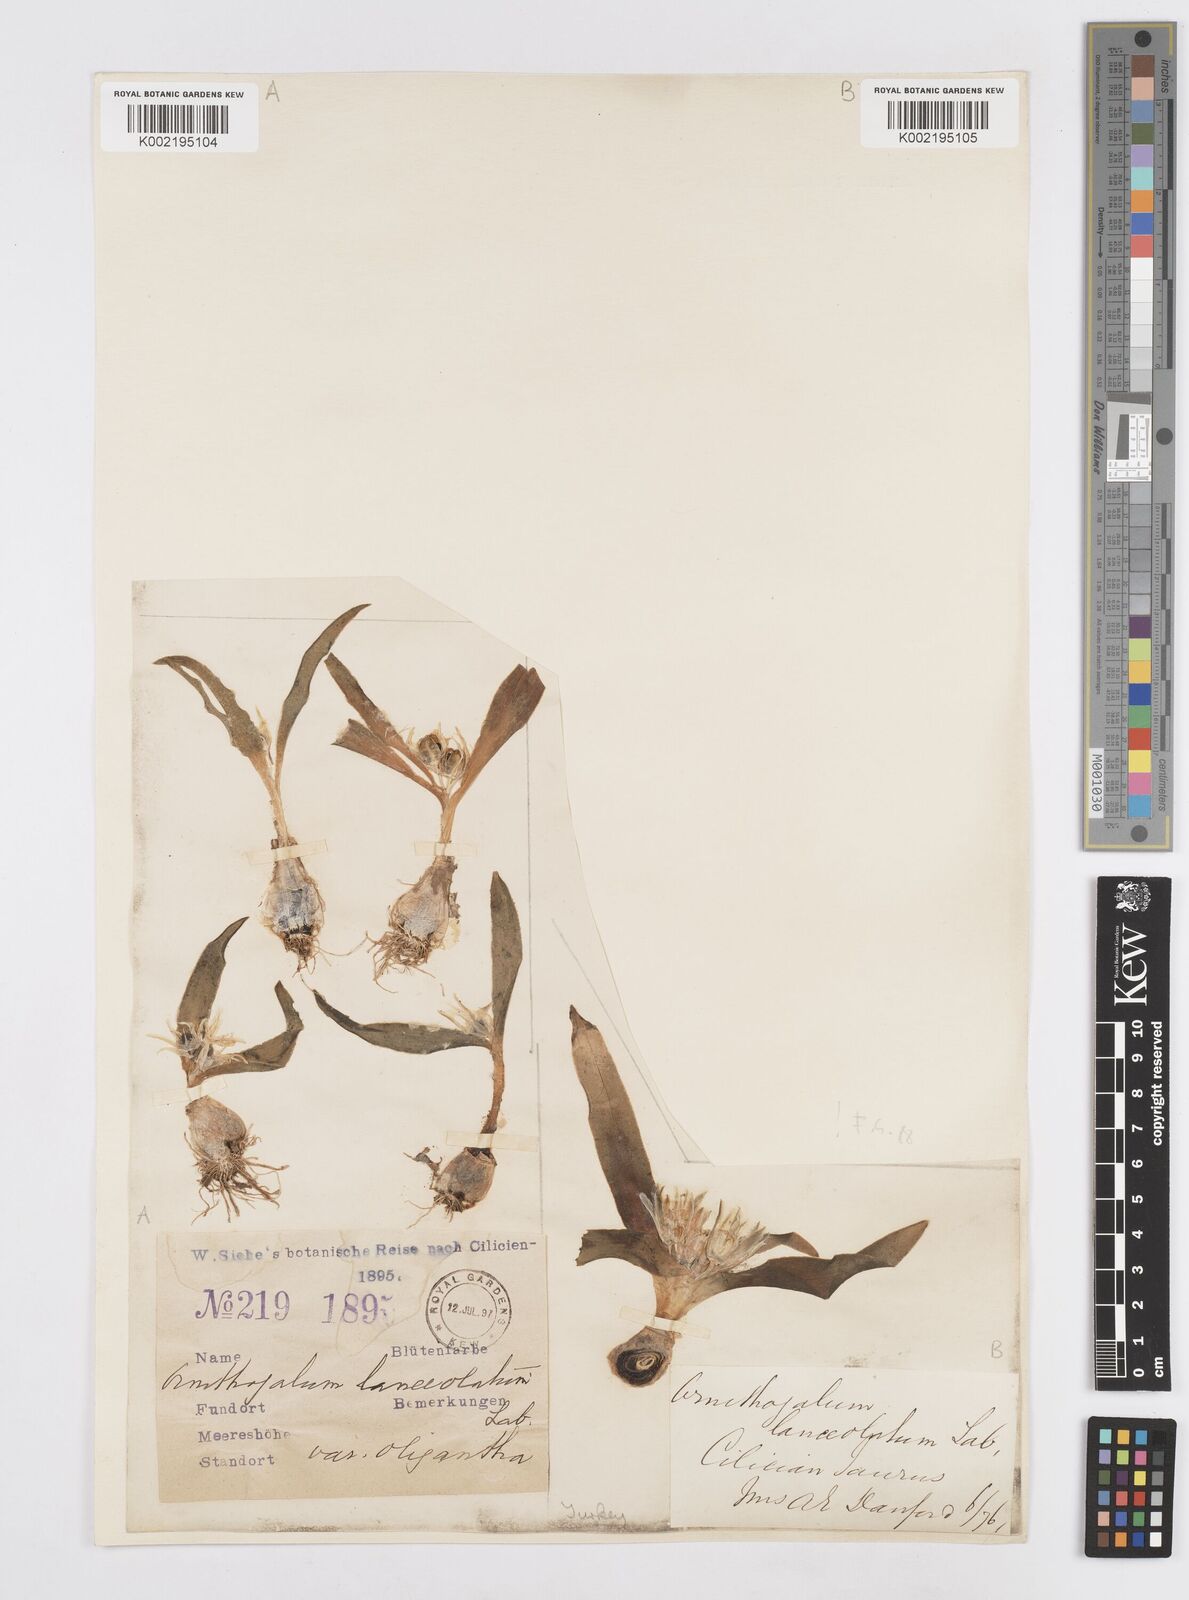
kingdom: Plantae
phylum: Tracheophyta
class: Liliopsida
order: Asparagales
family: Asparagaceae
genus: Ornithogalum
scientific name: Ornithogalum lanceolatum
